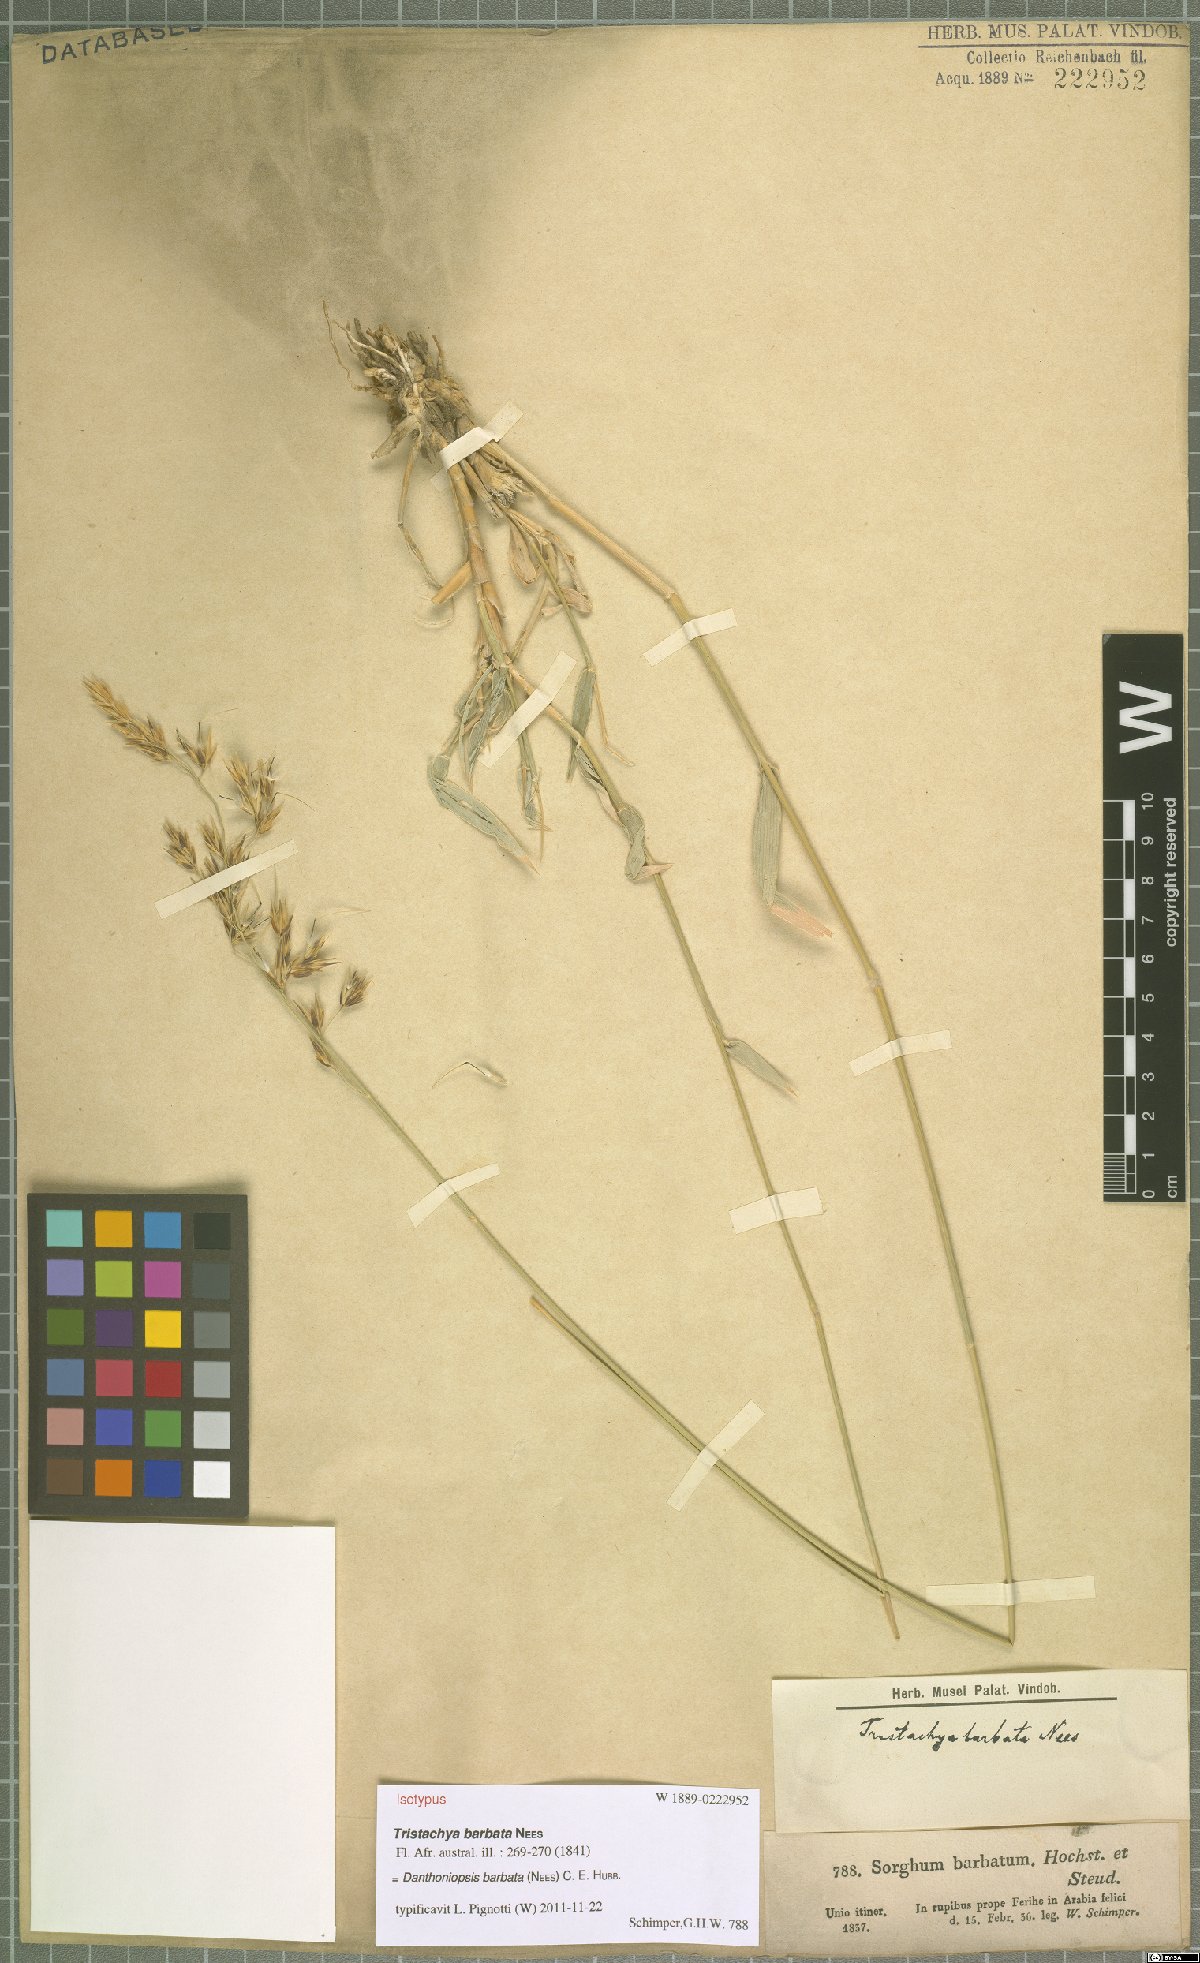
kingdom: Plantae
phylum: Tracheophyta
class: Liliopsida
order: Poales
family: Poaceae
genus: Danthoniopsis
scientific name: Danthoniopsis barbata
